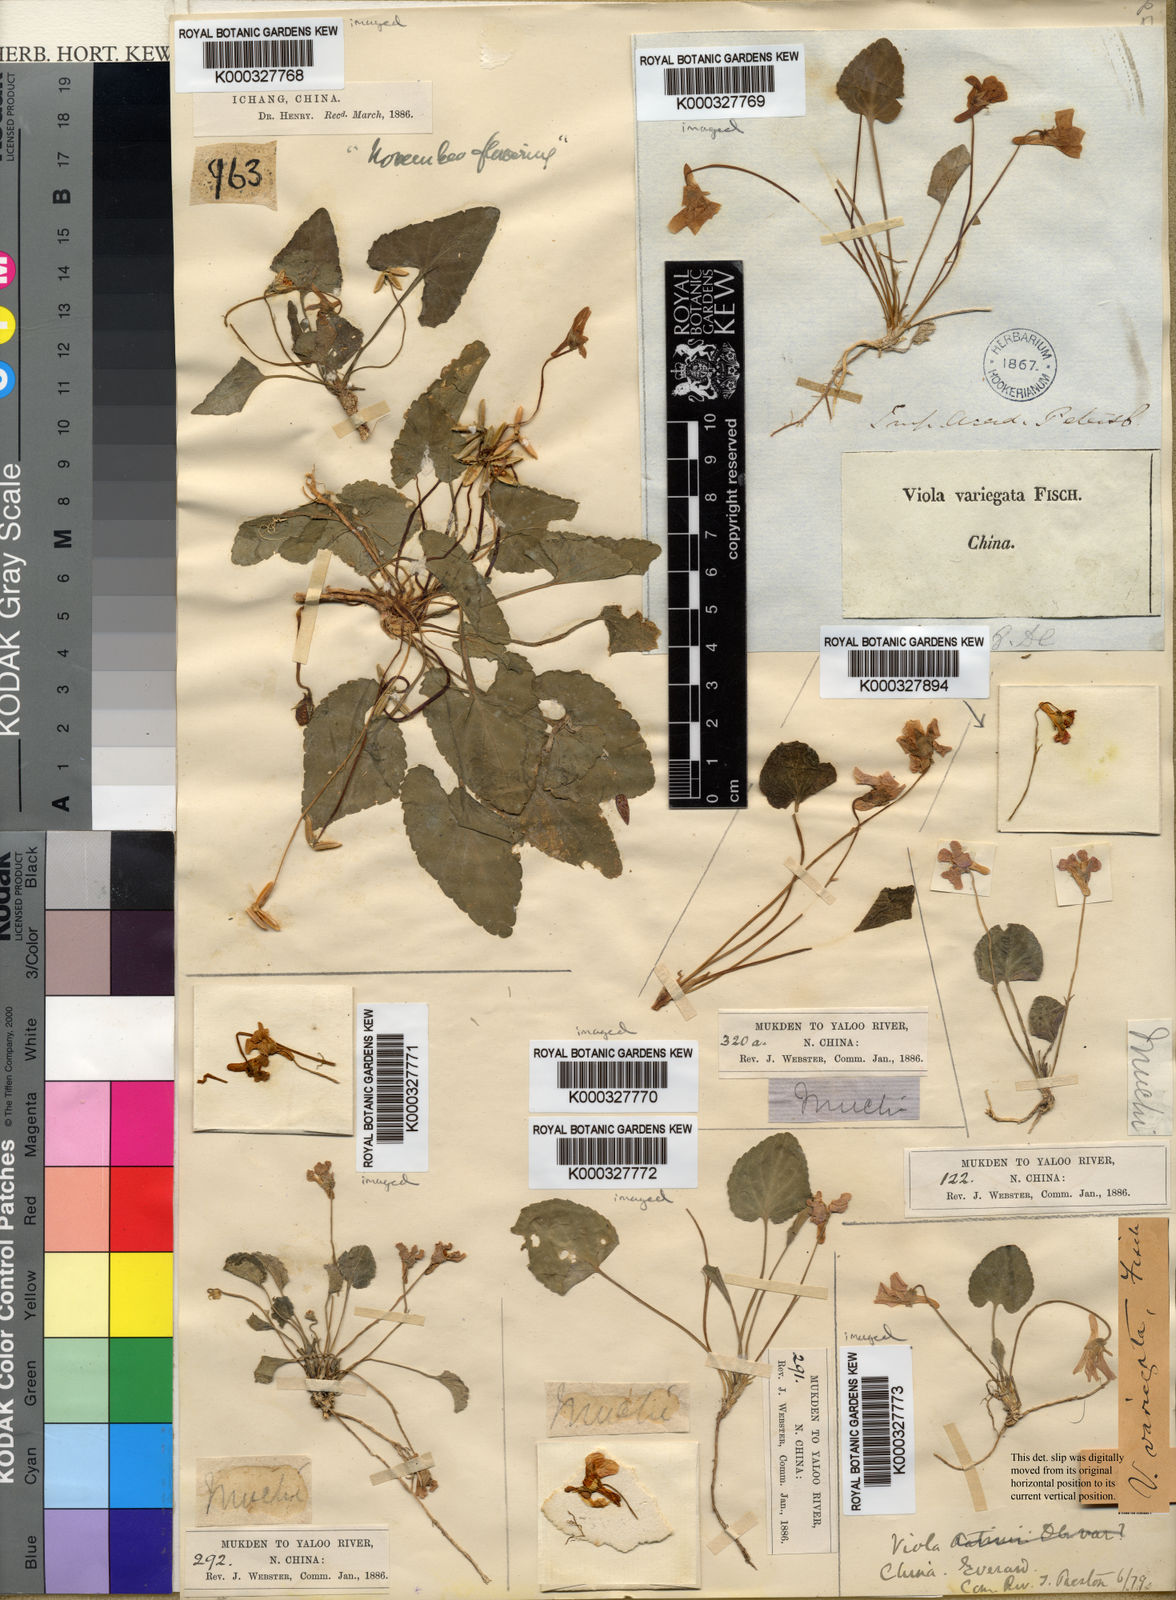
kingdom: Plantae
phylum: Tracheophyta
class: Magnoliopsida
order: Malpighiales
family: Violaceae
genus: Viola
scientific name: Viola variegata
